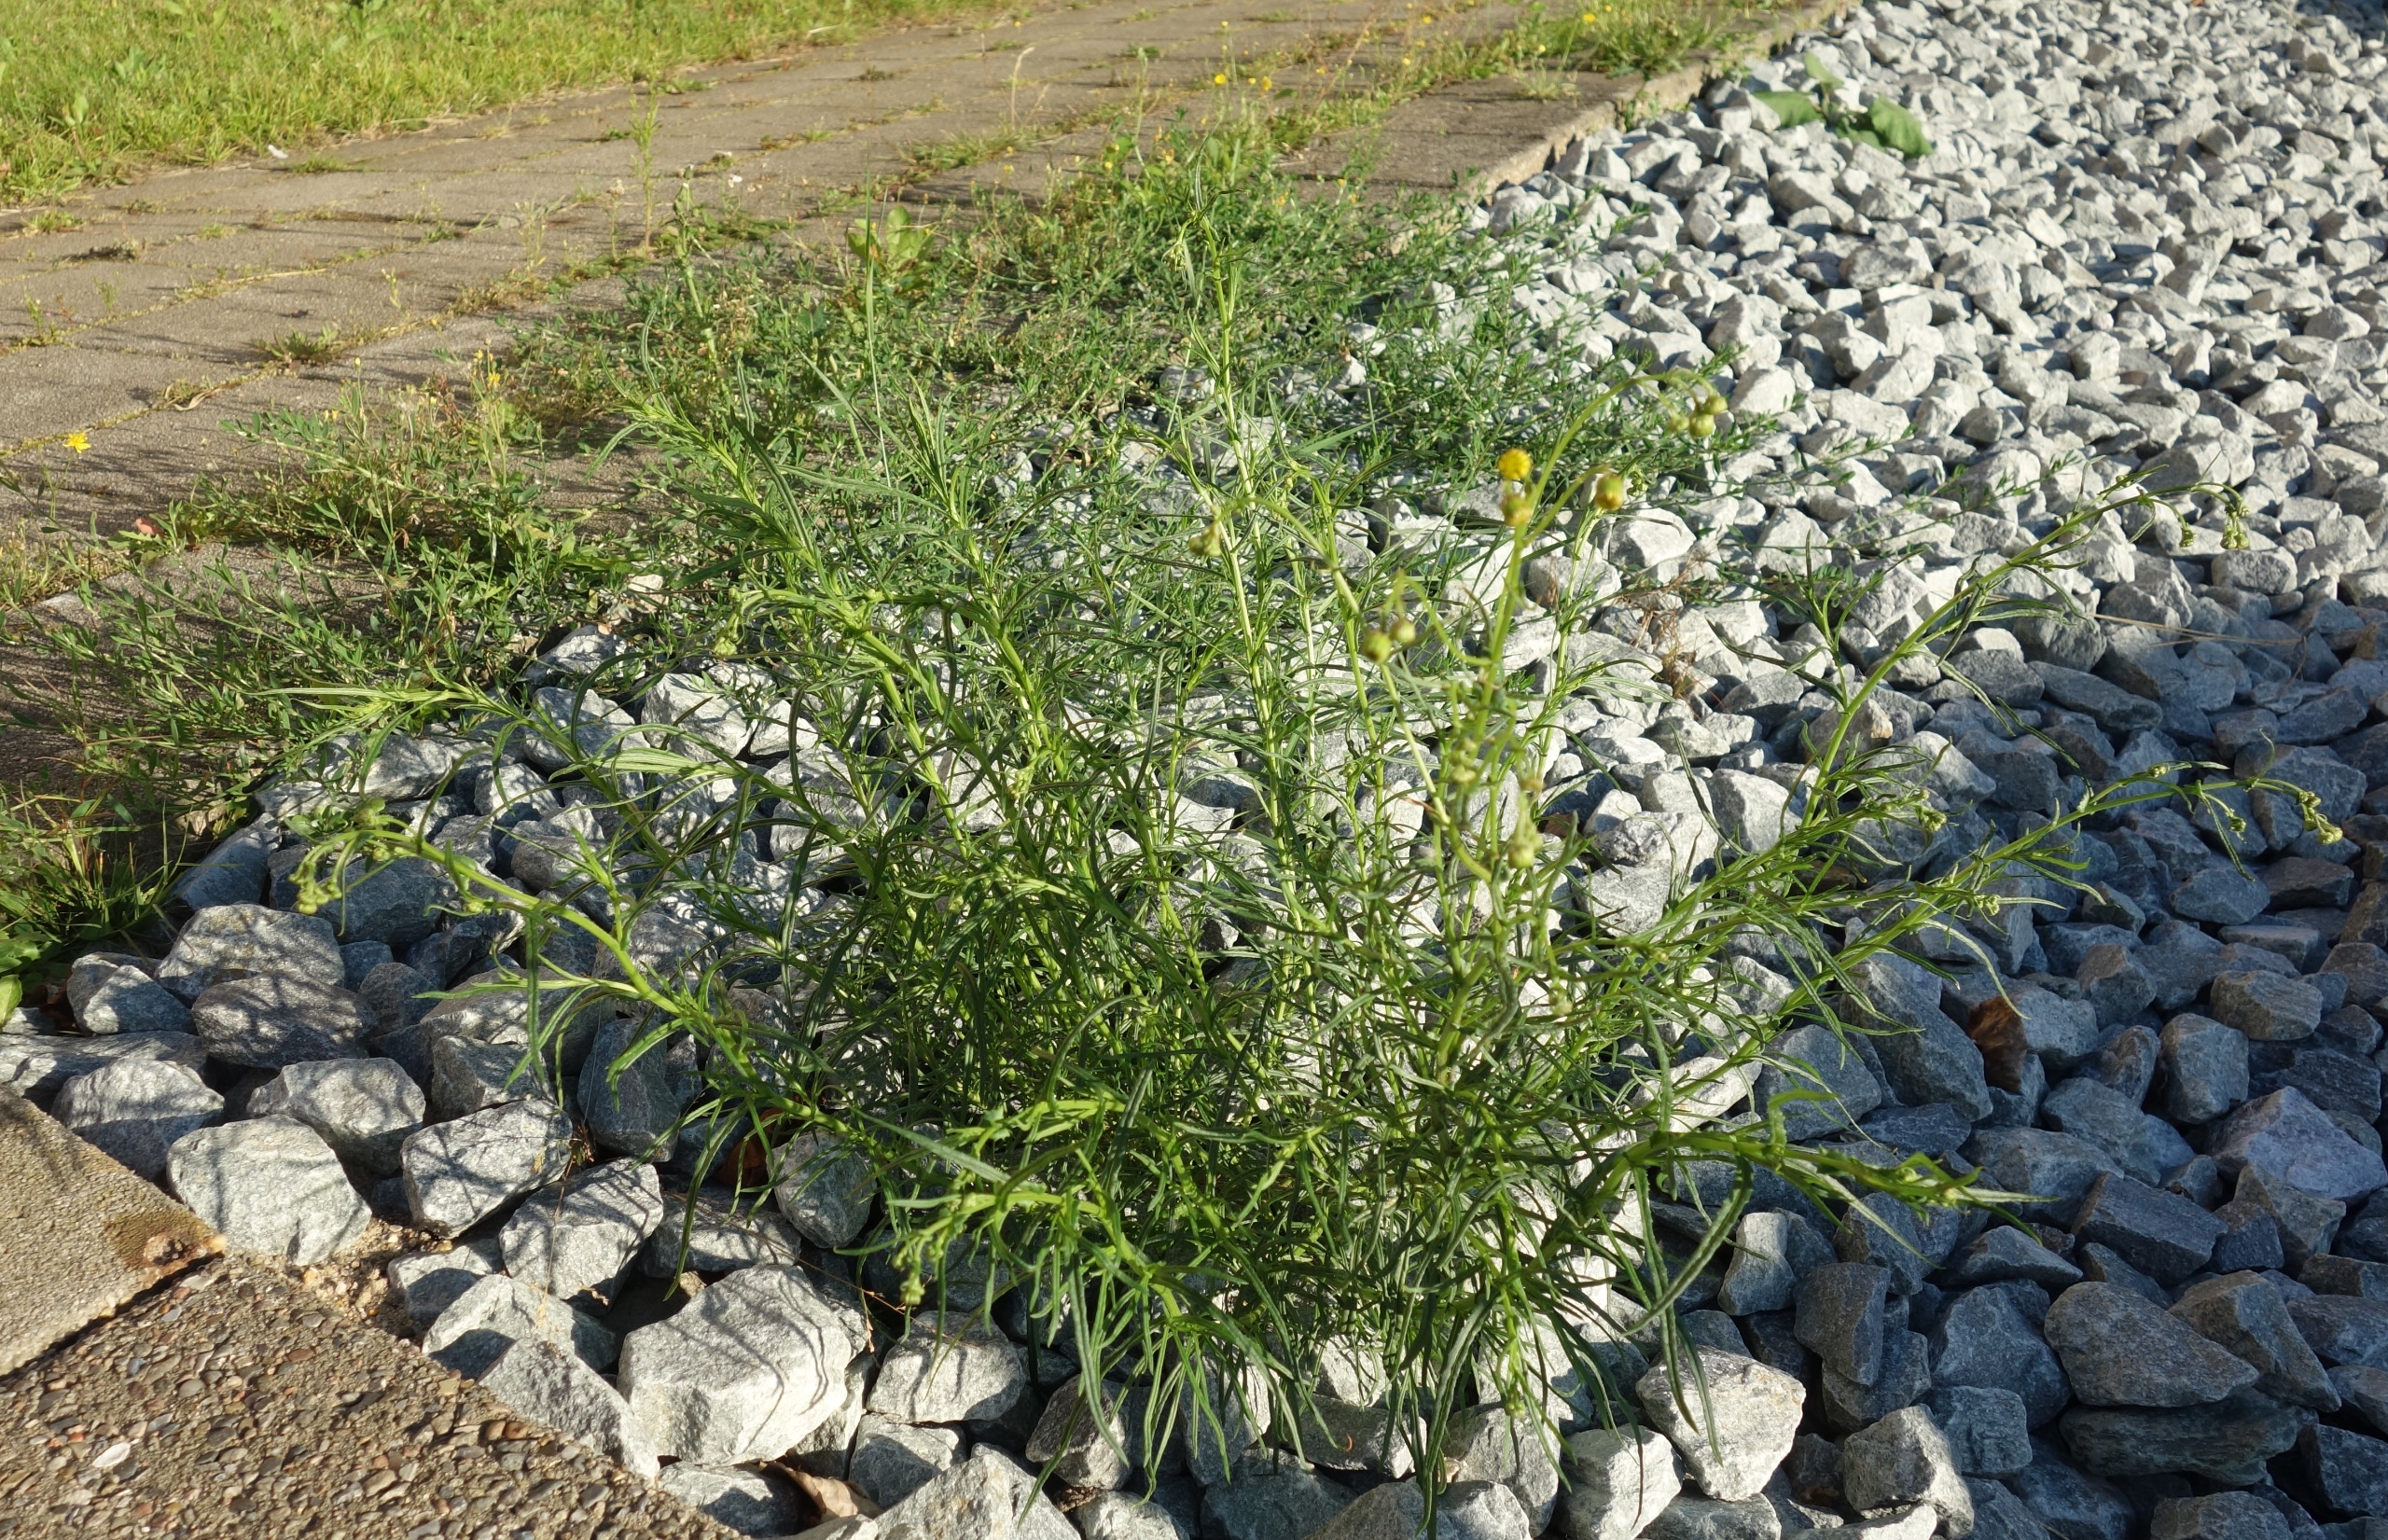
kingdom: Plantae
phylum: Tracheophyta
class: Magnoliopsida
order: Asterales
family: Asteraceae
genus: Senecio
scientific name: Senecio inaequidens
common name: Smalbladet brandbæger
